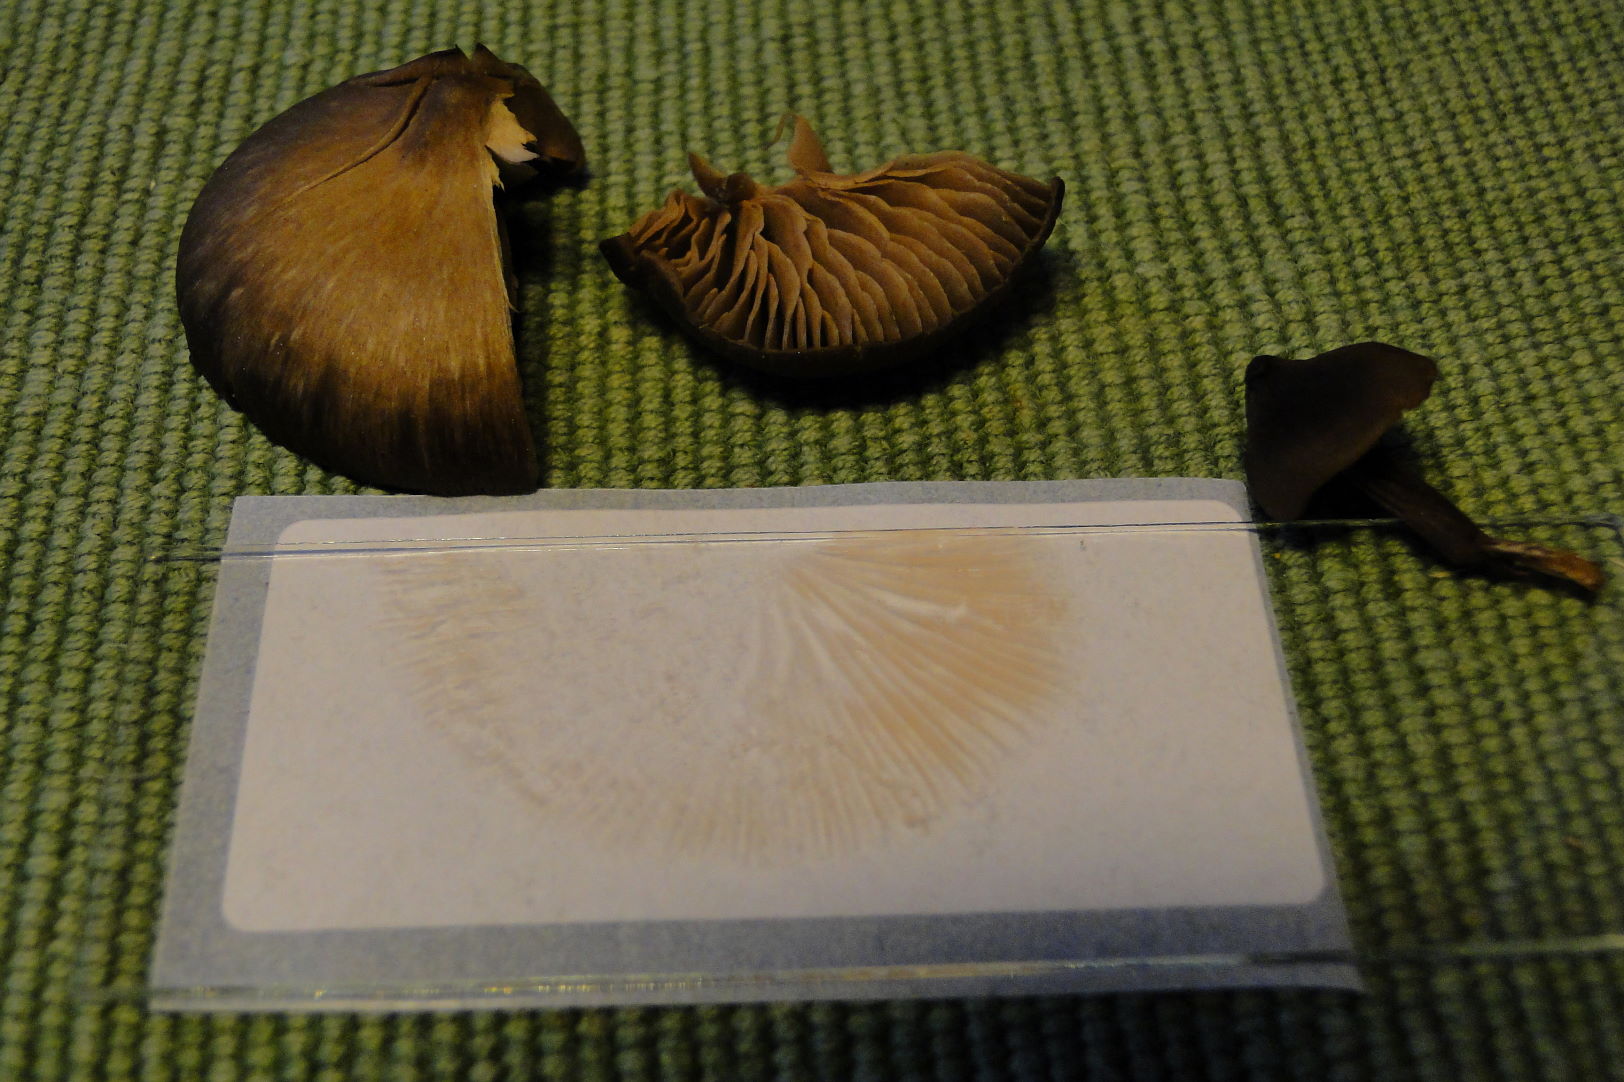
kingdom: Fungi
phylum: Basidiomycota
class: Agaricomycetes
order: Agaricales
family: Entolomataceae
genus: Entoloma
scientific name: Entoloma vernum
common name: vår-rødblad
